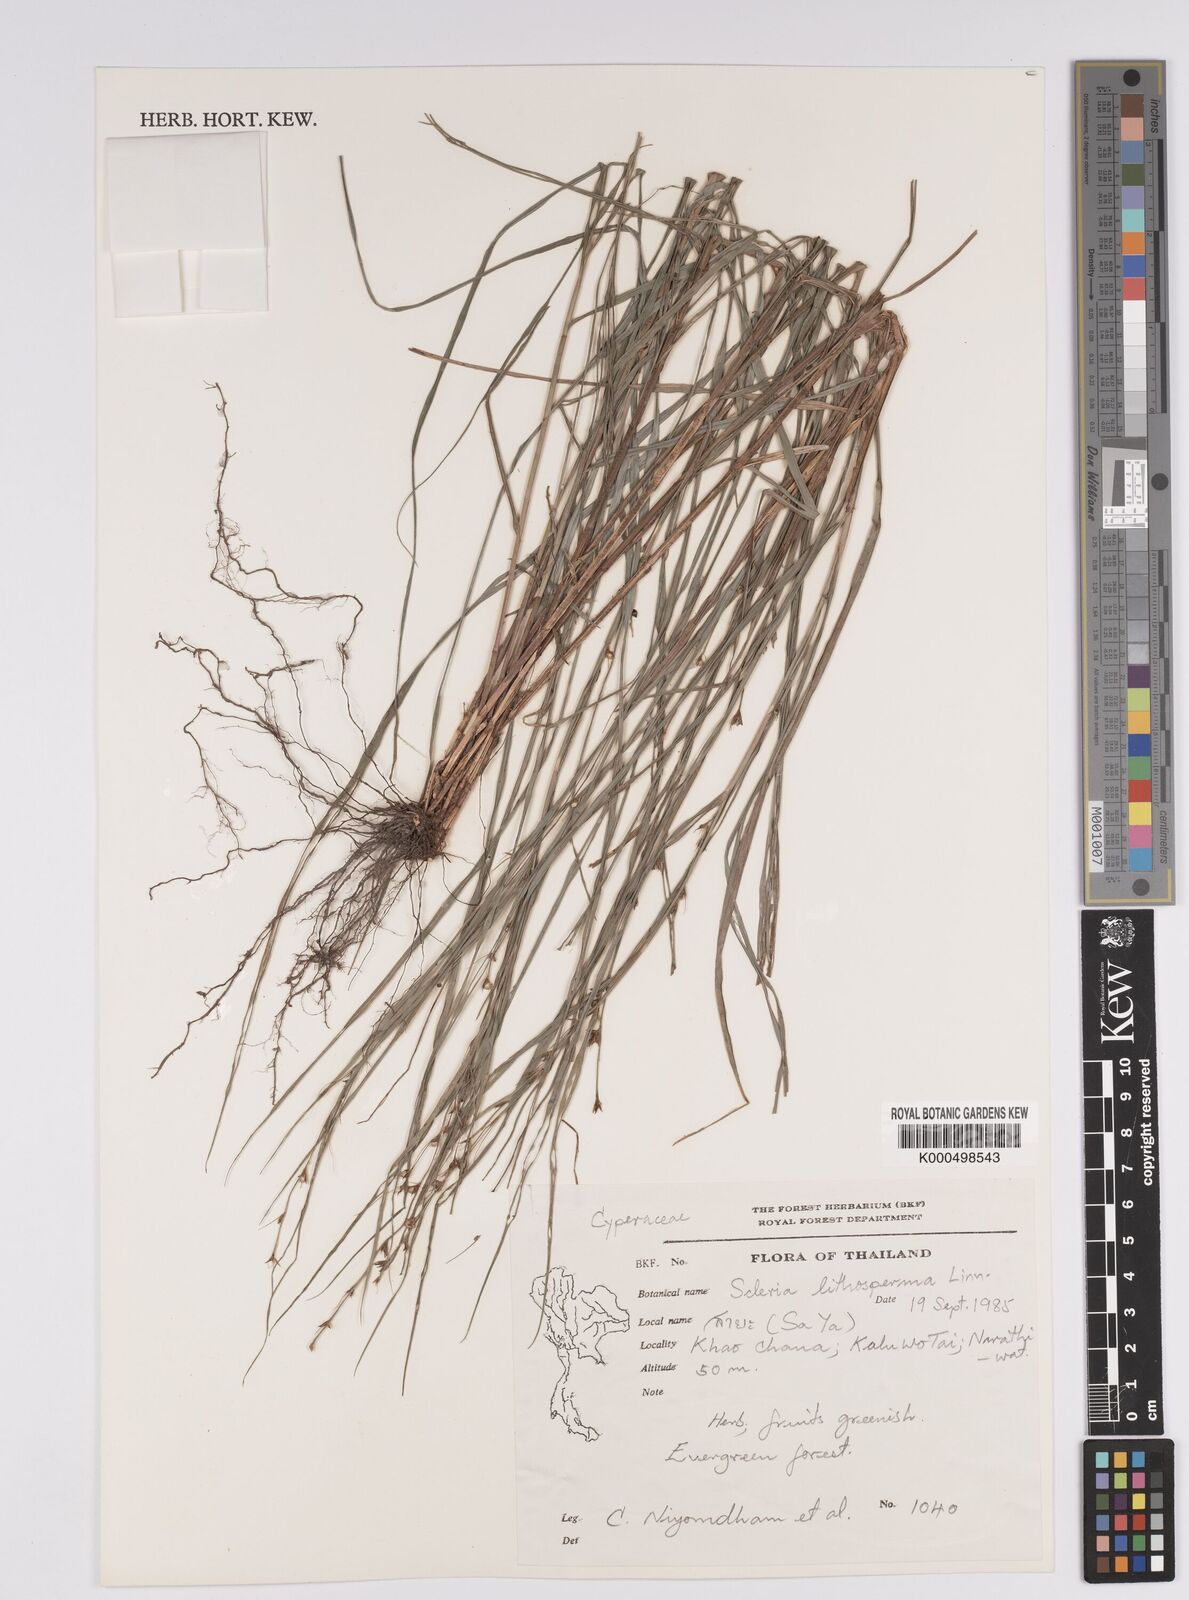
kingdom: Plantae
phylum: Tracheophyta
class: Liliopsida
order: Poales
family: Cyperaceae
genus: Scleria
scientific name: Scleria lithosperma
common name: Florida keys nut-rush
